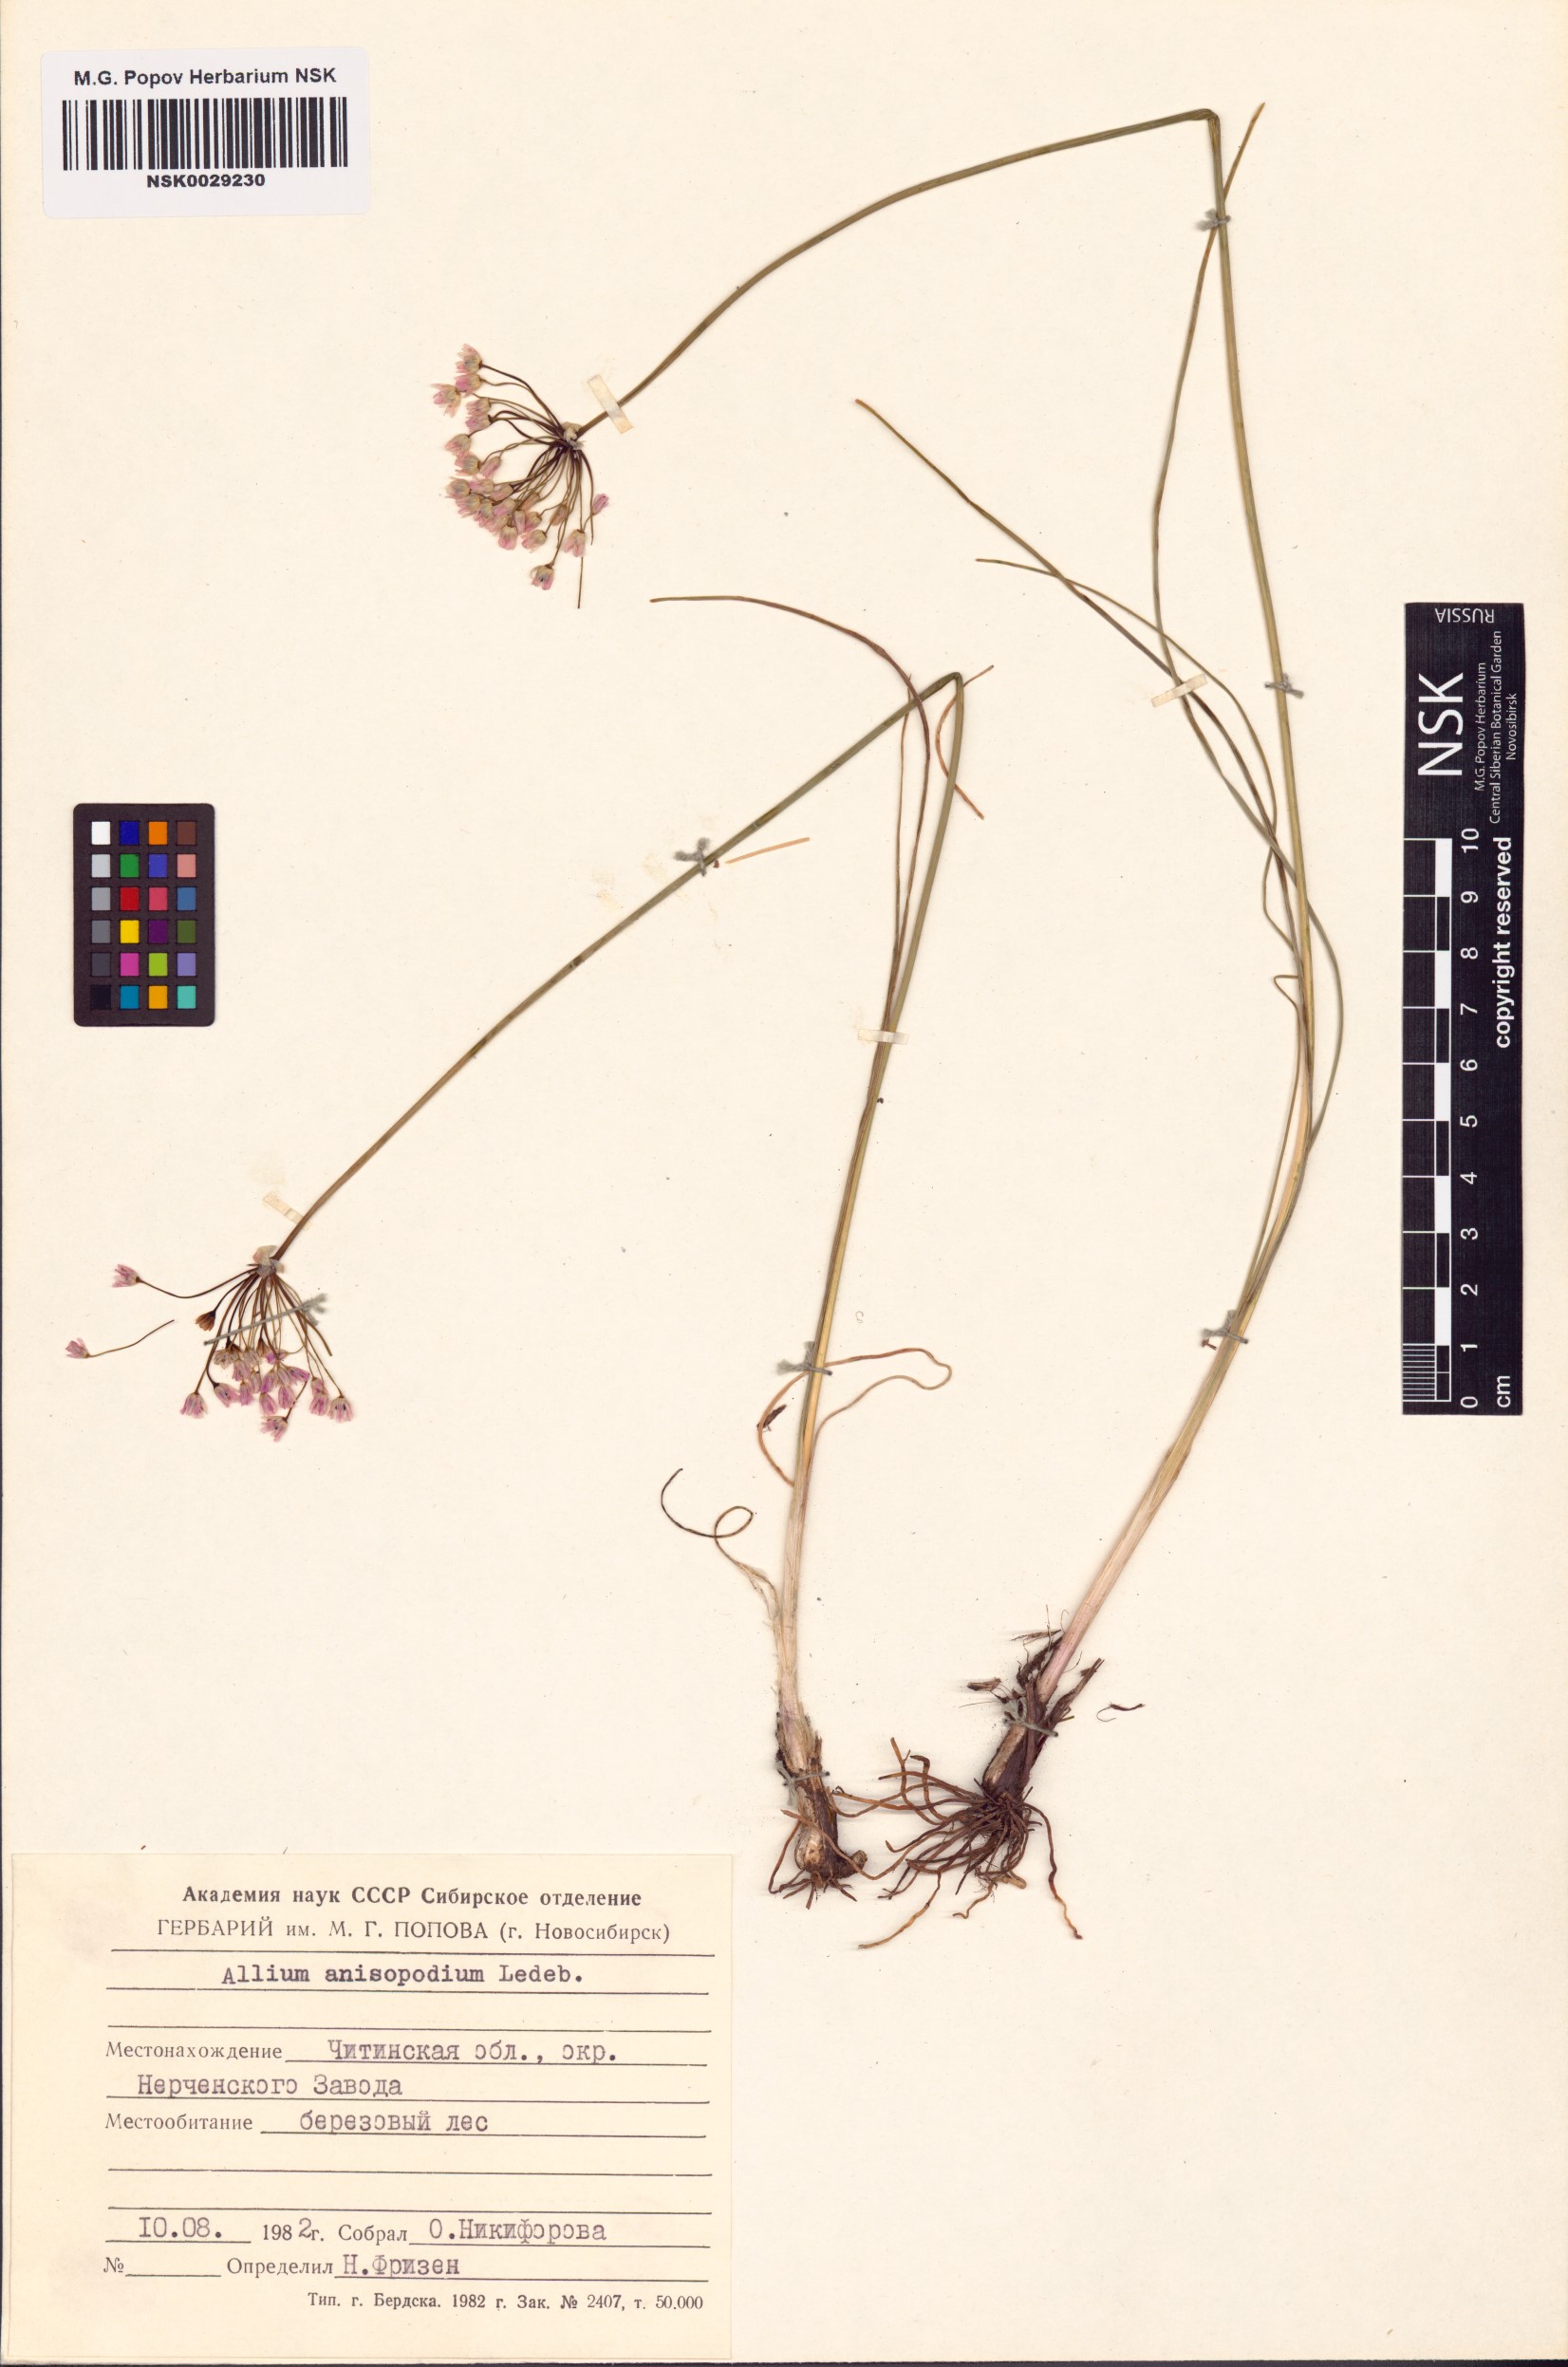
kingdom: Plantae
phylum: Tracheophyta
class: Liliopsida
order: Asparagales
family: Amaryllidaceae
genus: Allium
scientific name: Allium anisopodium
